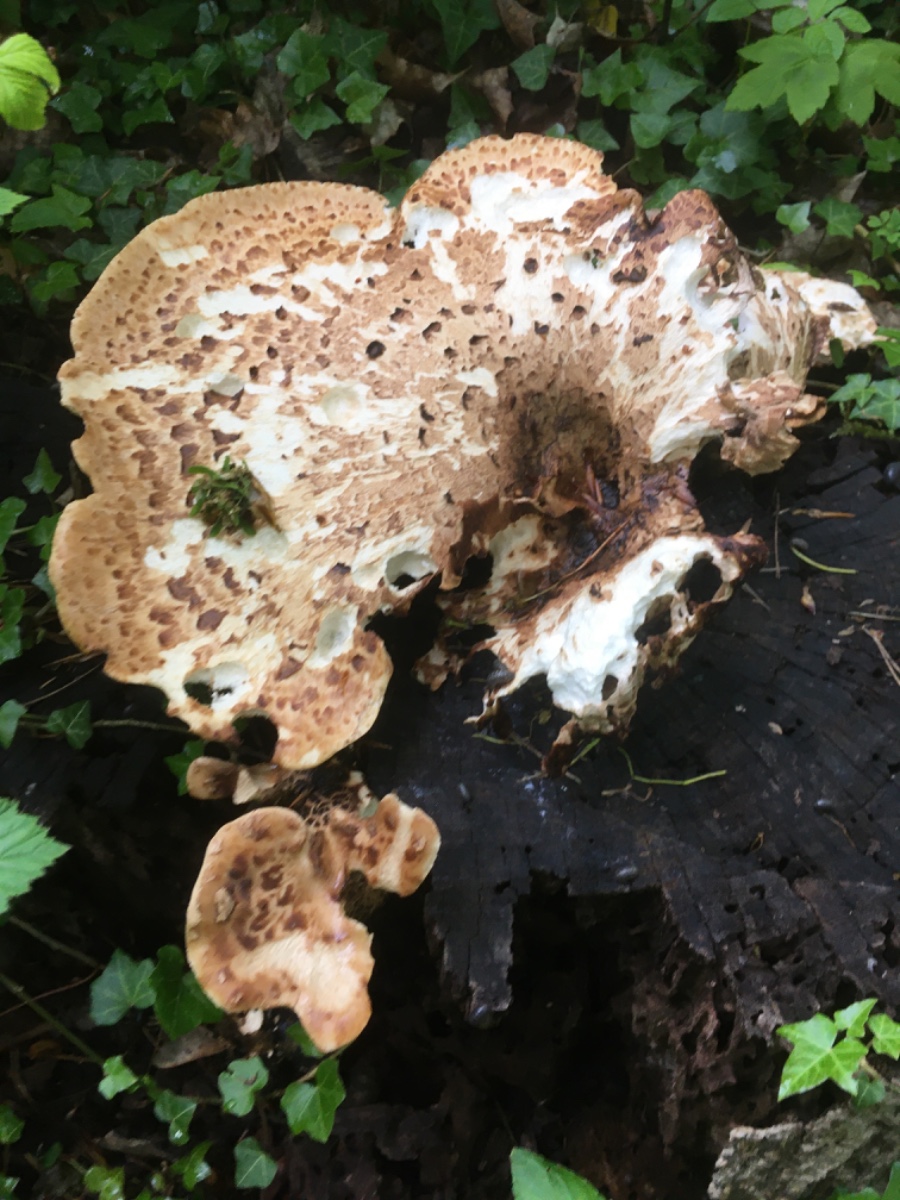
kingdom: Fungi
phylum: Basidiomycota
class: Agaricomycetes
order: Polyporales
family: Polyporaceae
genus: Cerioporus
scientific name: Cerioporus squamosus
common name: skællet stilkporesvamp
